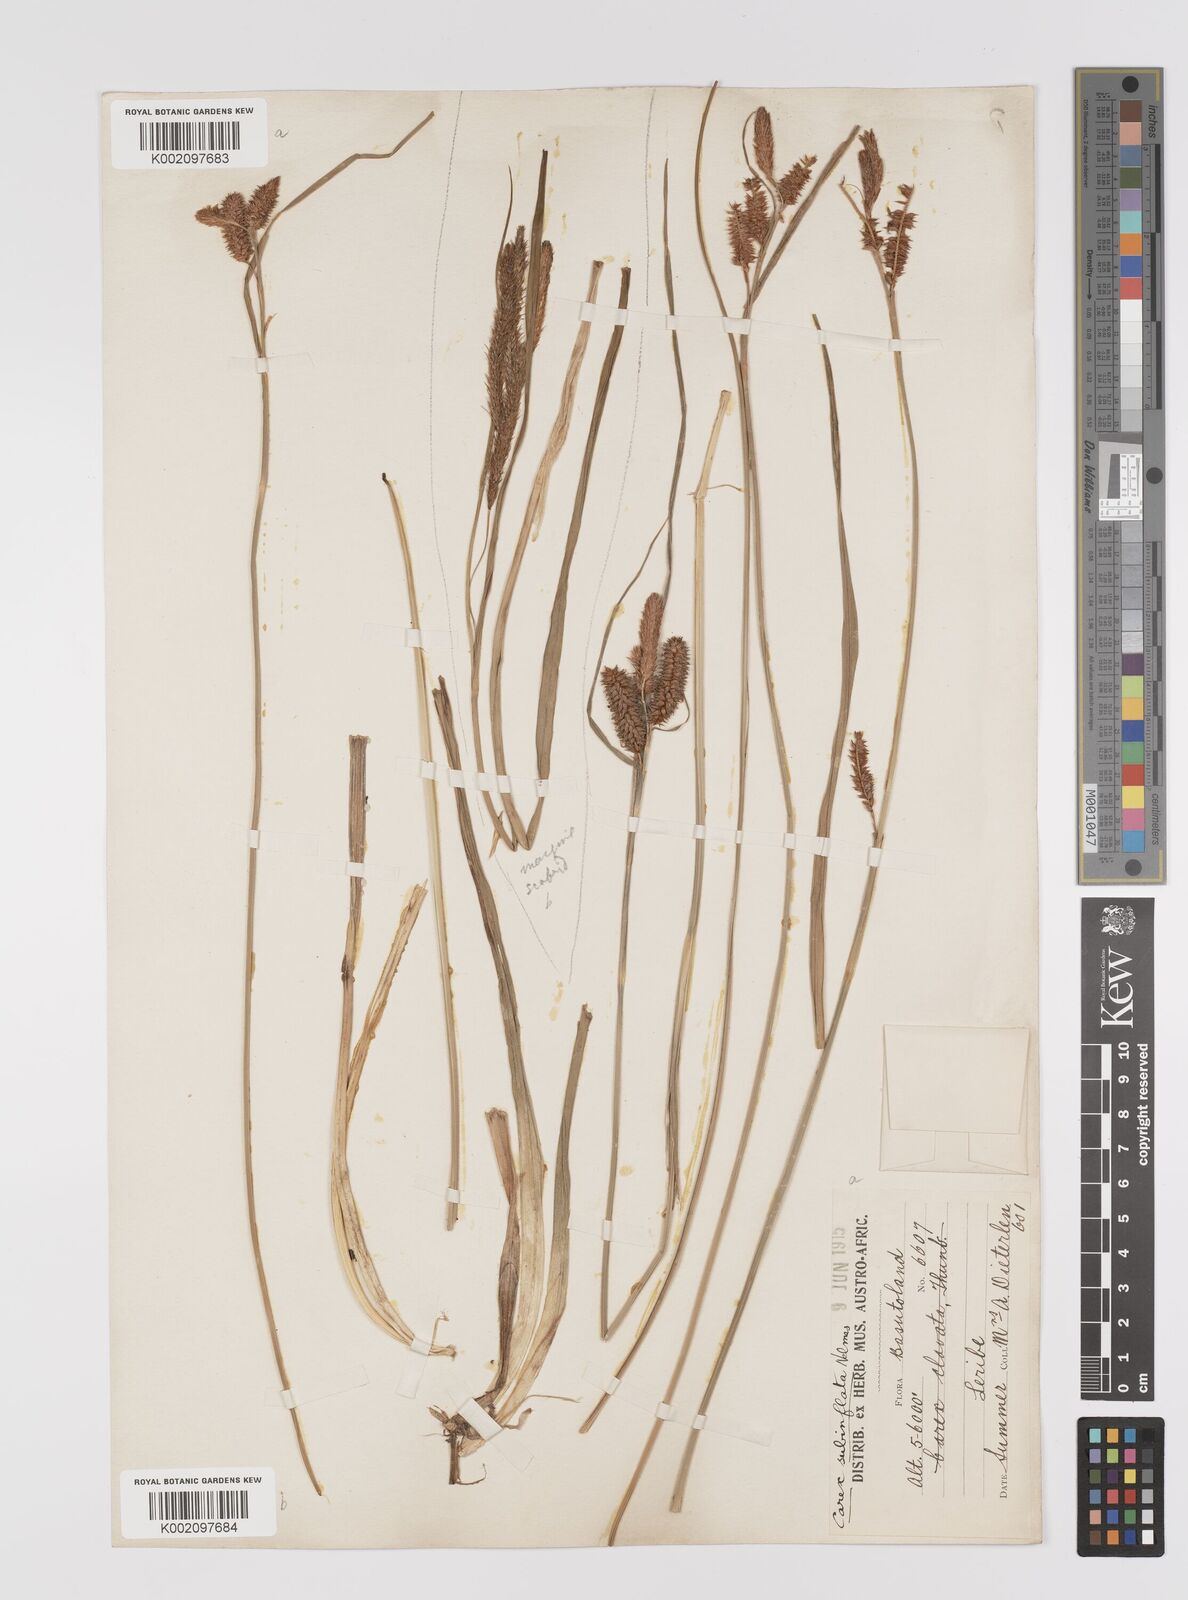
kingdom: Plantae
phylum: Tracheophyta
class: Liliopsida
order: Poales
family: Cyperaceae
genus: Carex
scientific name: Carex subinflata
